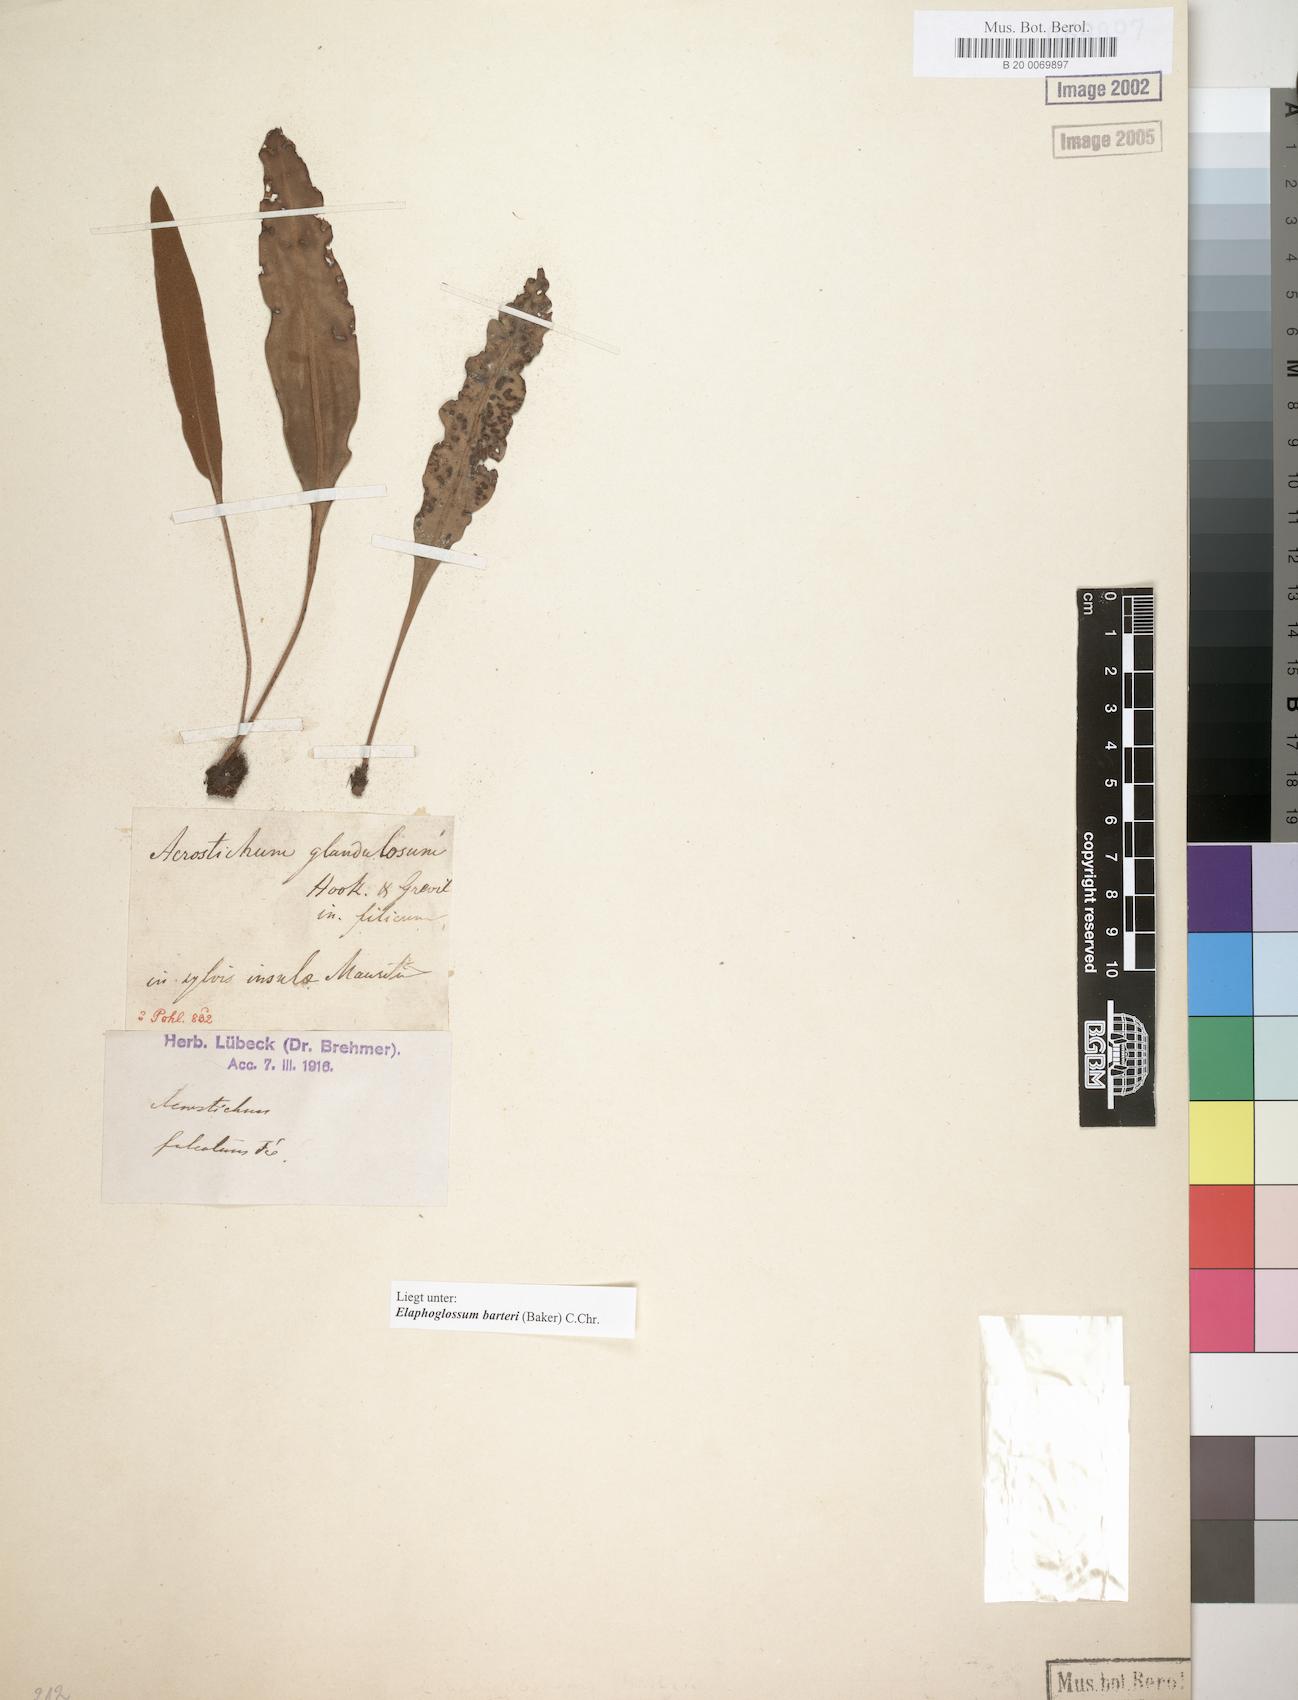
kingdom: Plantae
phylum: Tracheophyta
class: Polypodiopsida
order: Polypodiales
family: Dryopteridaceae
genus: Elaphoglossum
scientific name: Elaphoglossum barteri
